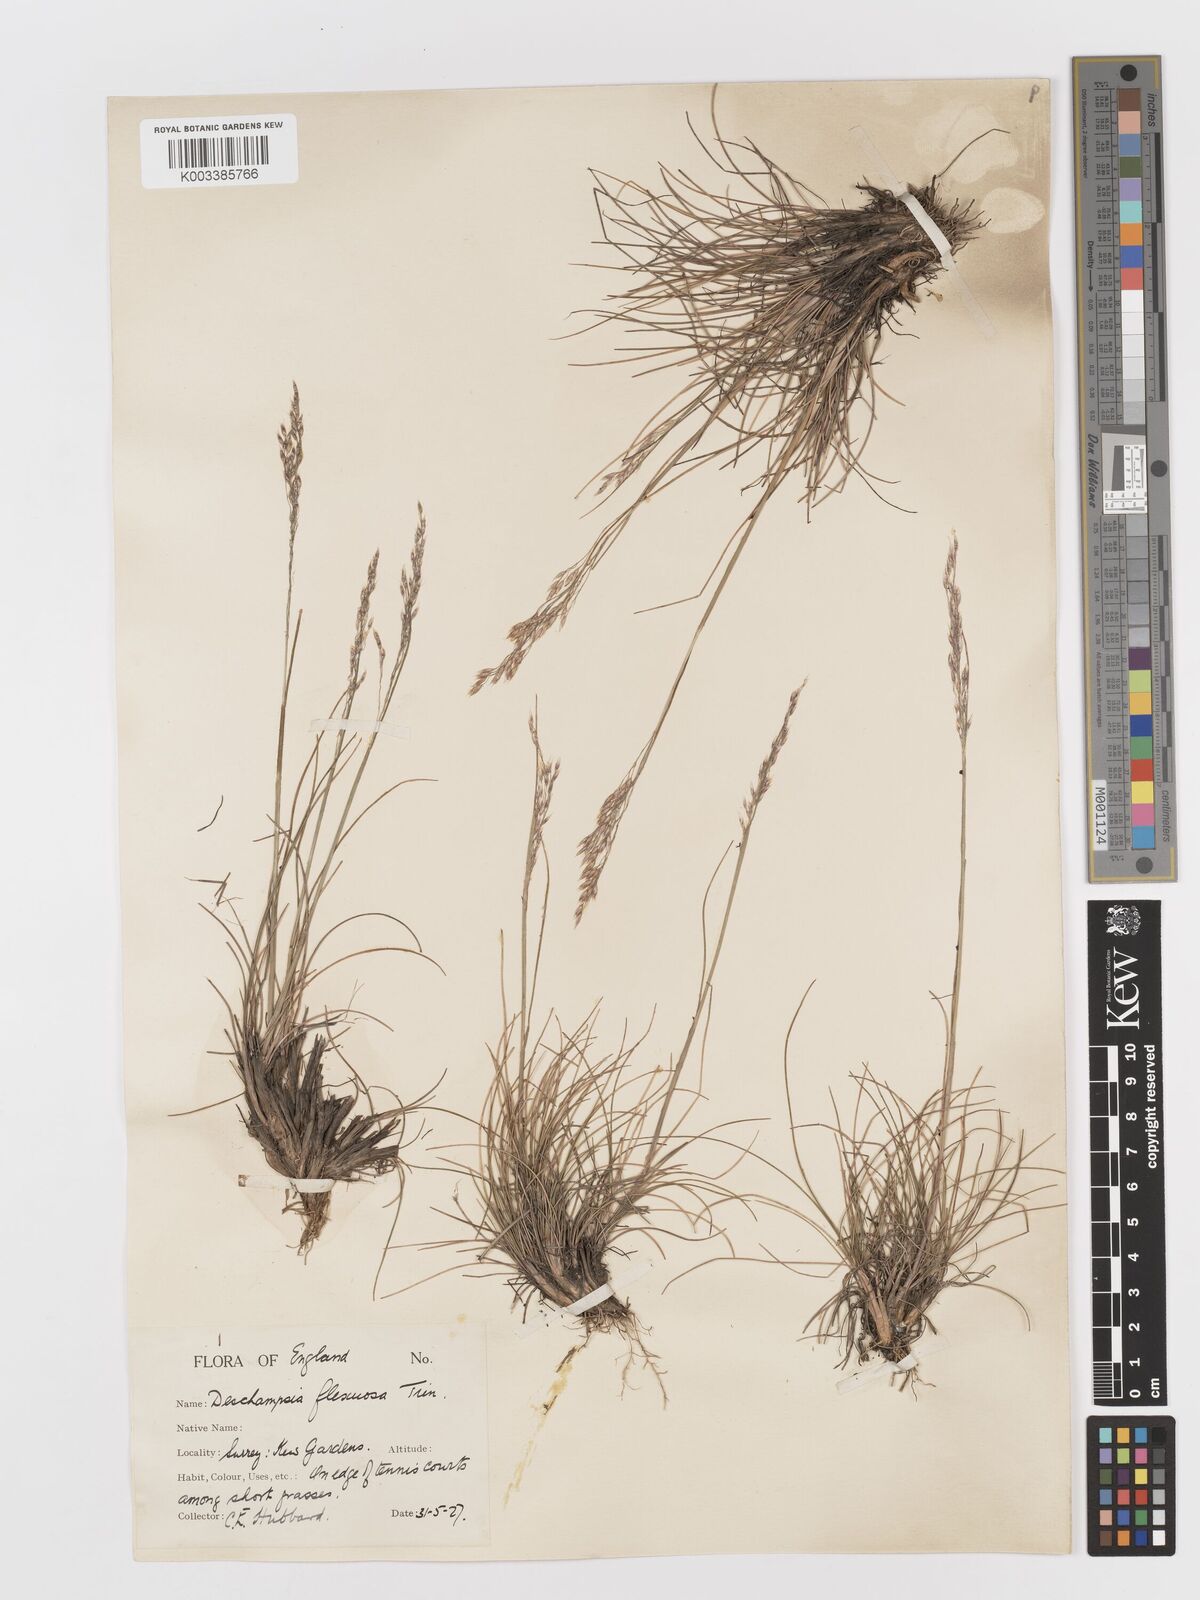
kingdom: Plantae
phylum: Tracheophyta
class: Liliopsida
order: Poales
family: Poaceae
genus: Avenella
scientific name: Avenella flexuosa
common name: Wavy hairgrass
